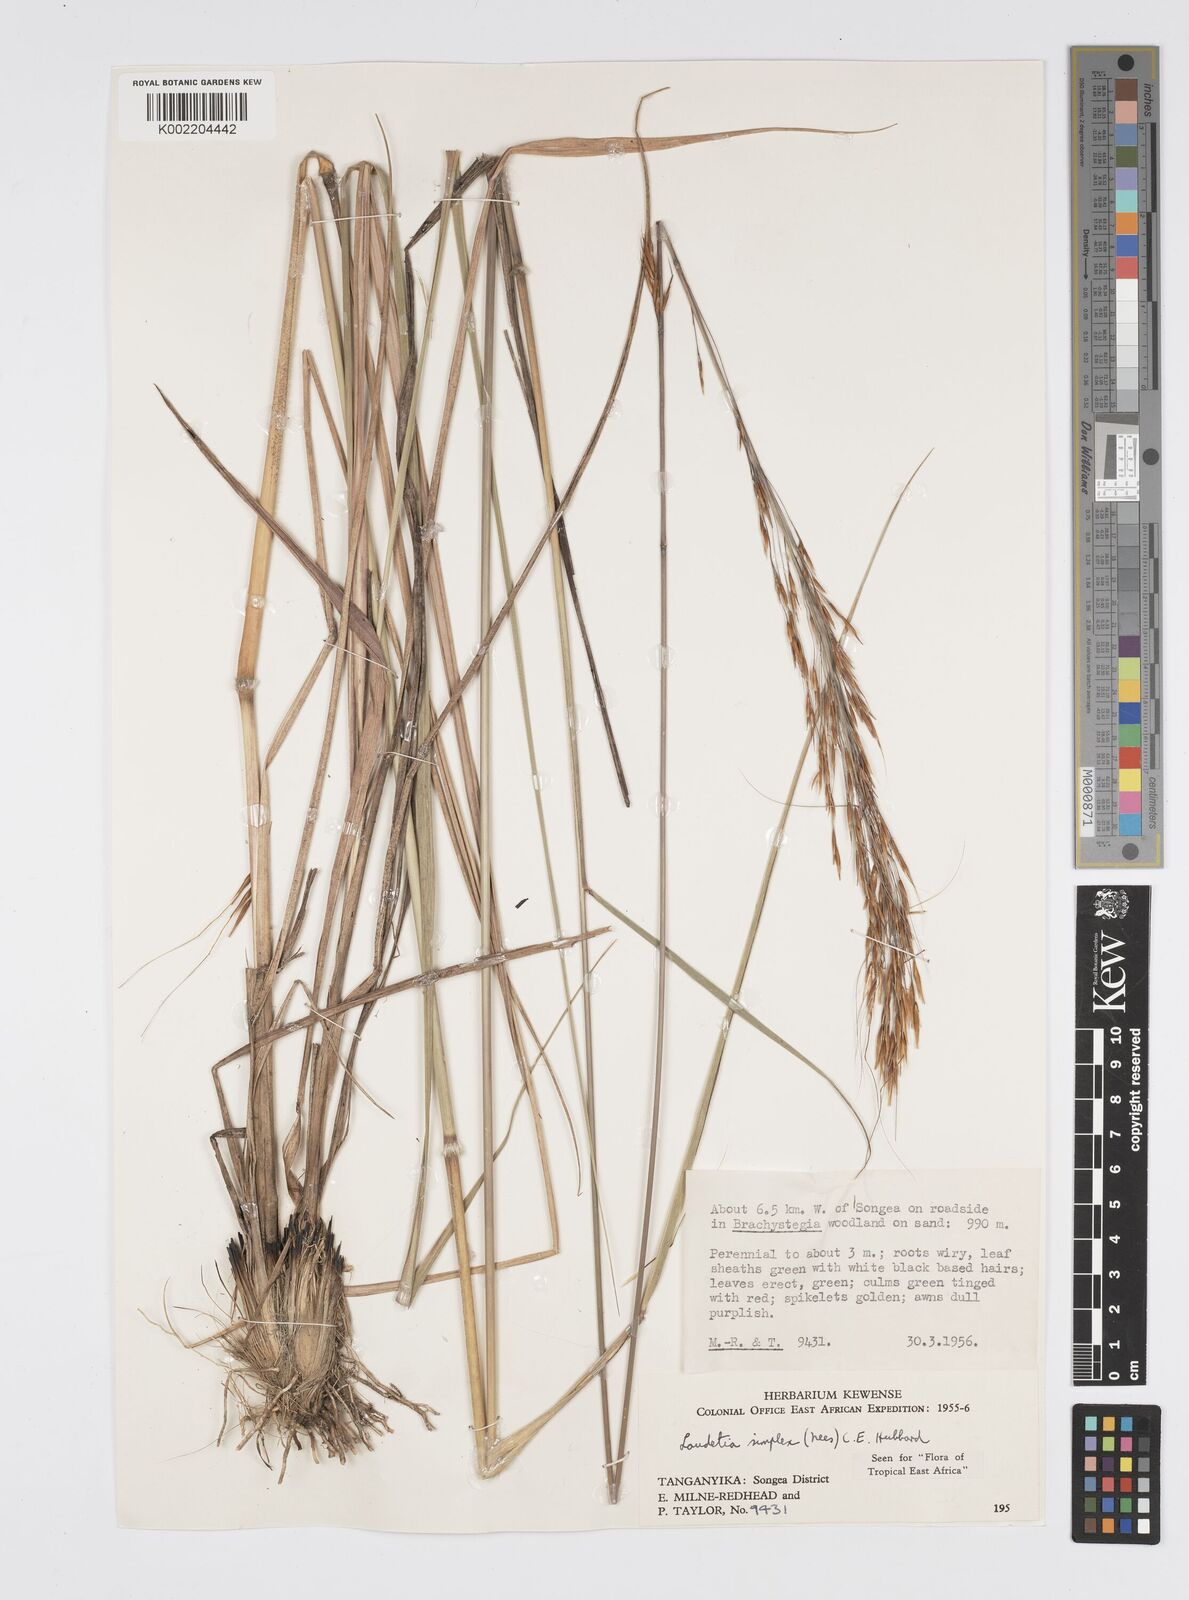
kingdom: Plantae
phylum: Tracheophyta
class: Liliopsida
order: Poales
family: Poaceae
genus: Loudetia
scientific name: Loudetia simplex
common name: Common russet grass
